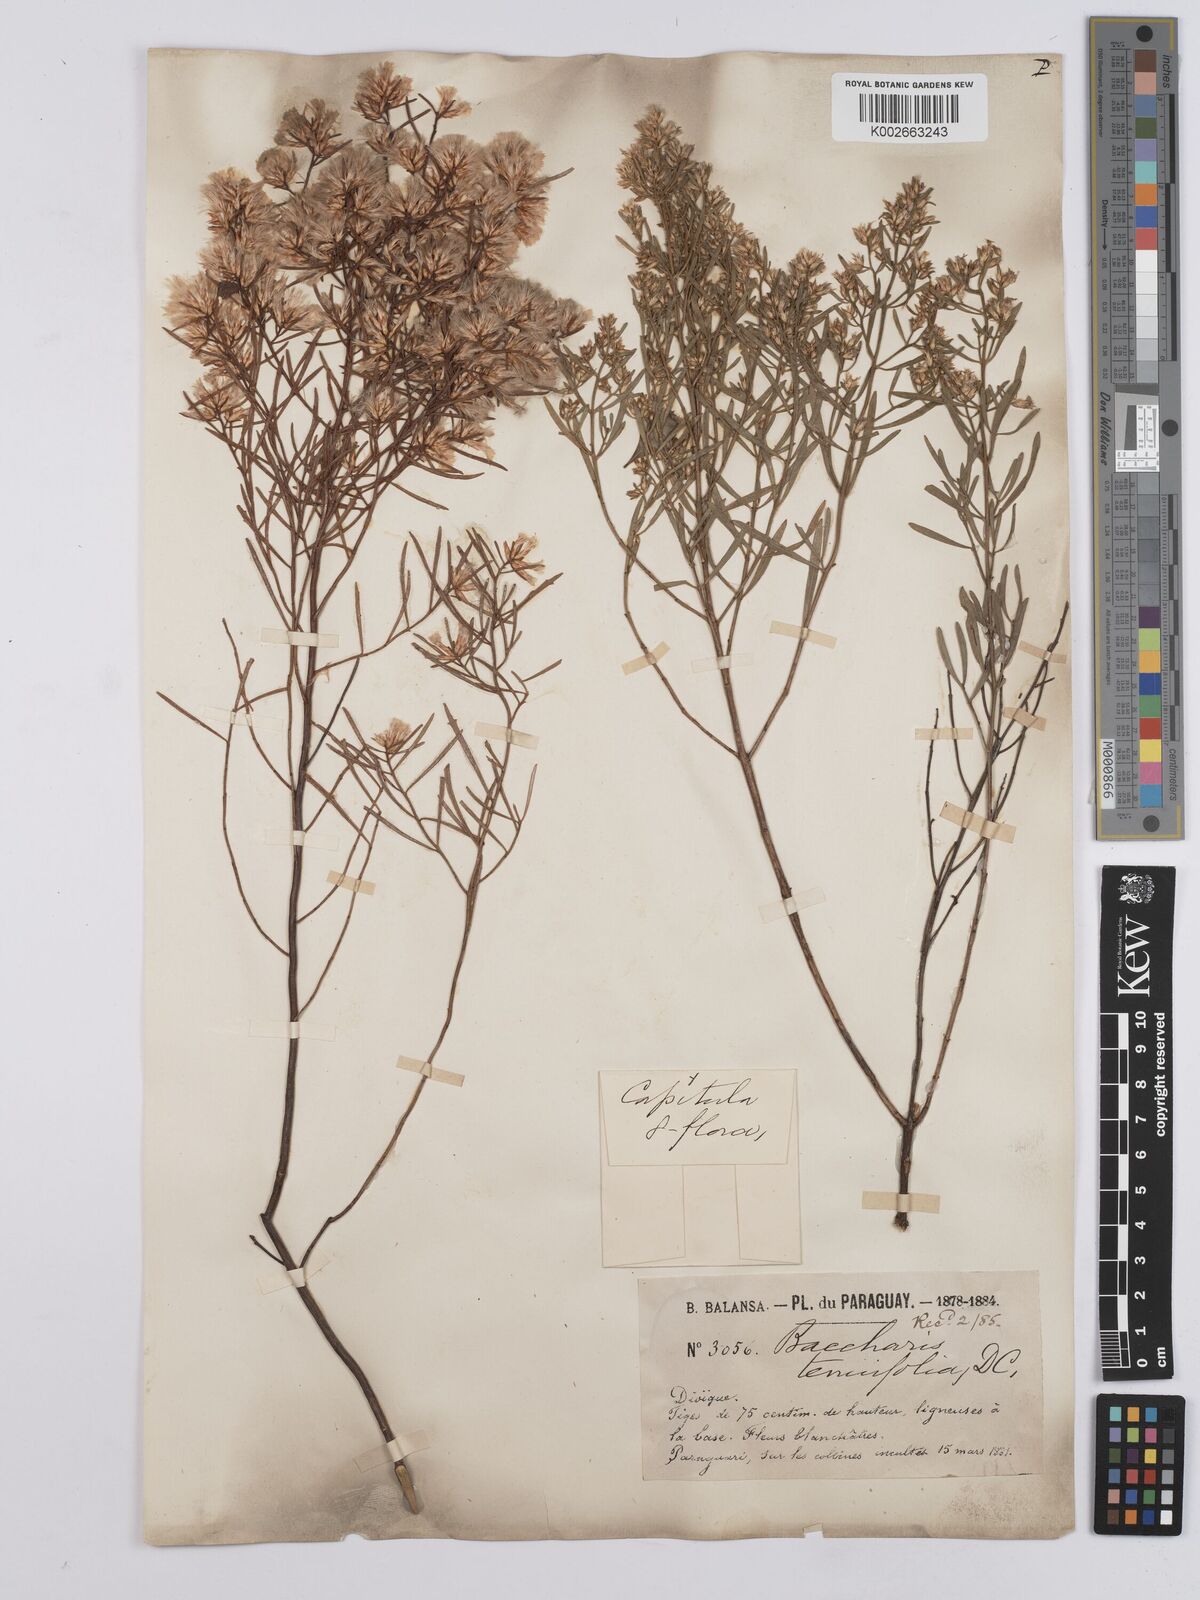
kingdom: Plantae
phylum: Tracheophyta
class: Magnoliopsida
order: Asterales
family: Asteraceae
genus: Baccharis
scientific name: Baccharis pseudotenuifolia
